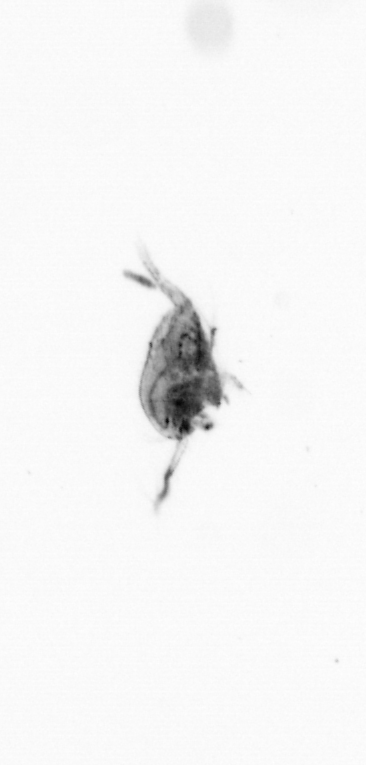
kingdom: Animalia
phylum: Arthropoda
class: Copepoda
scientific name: Copepoda
